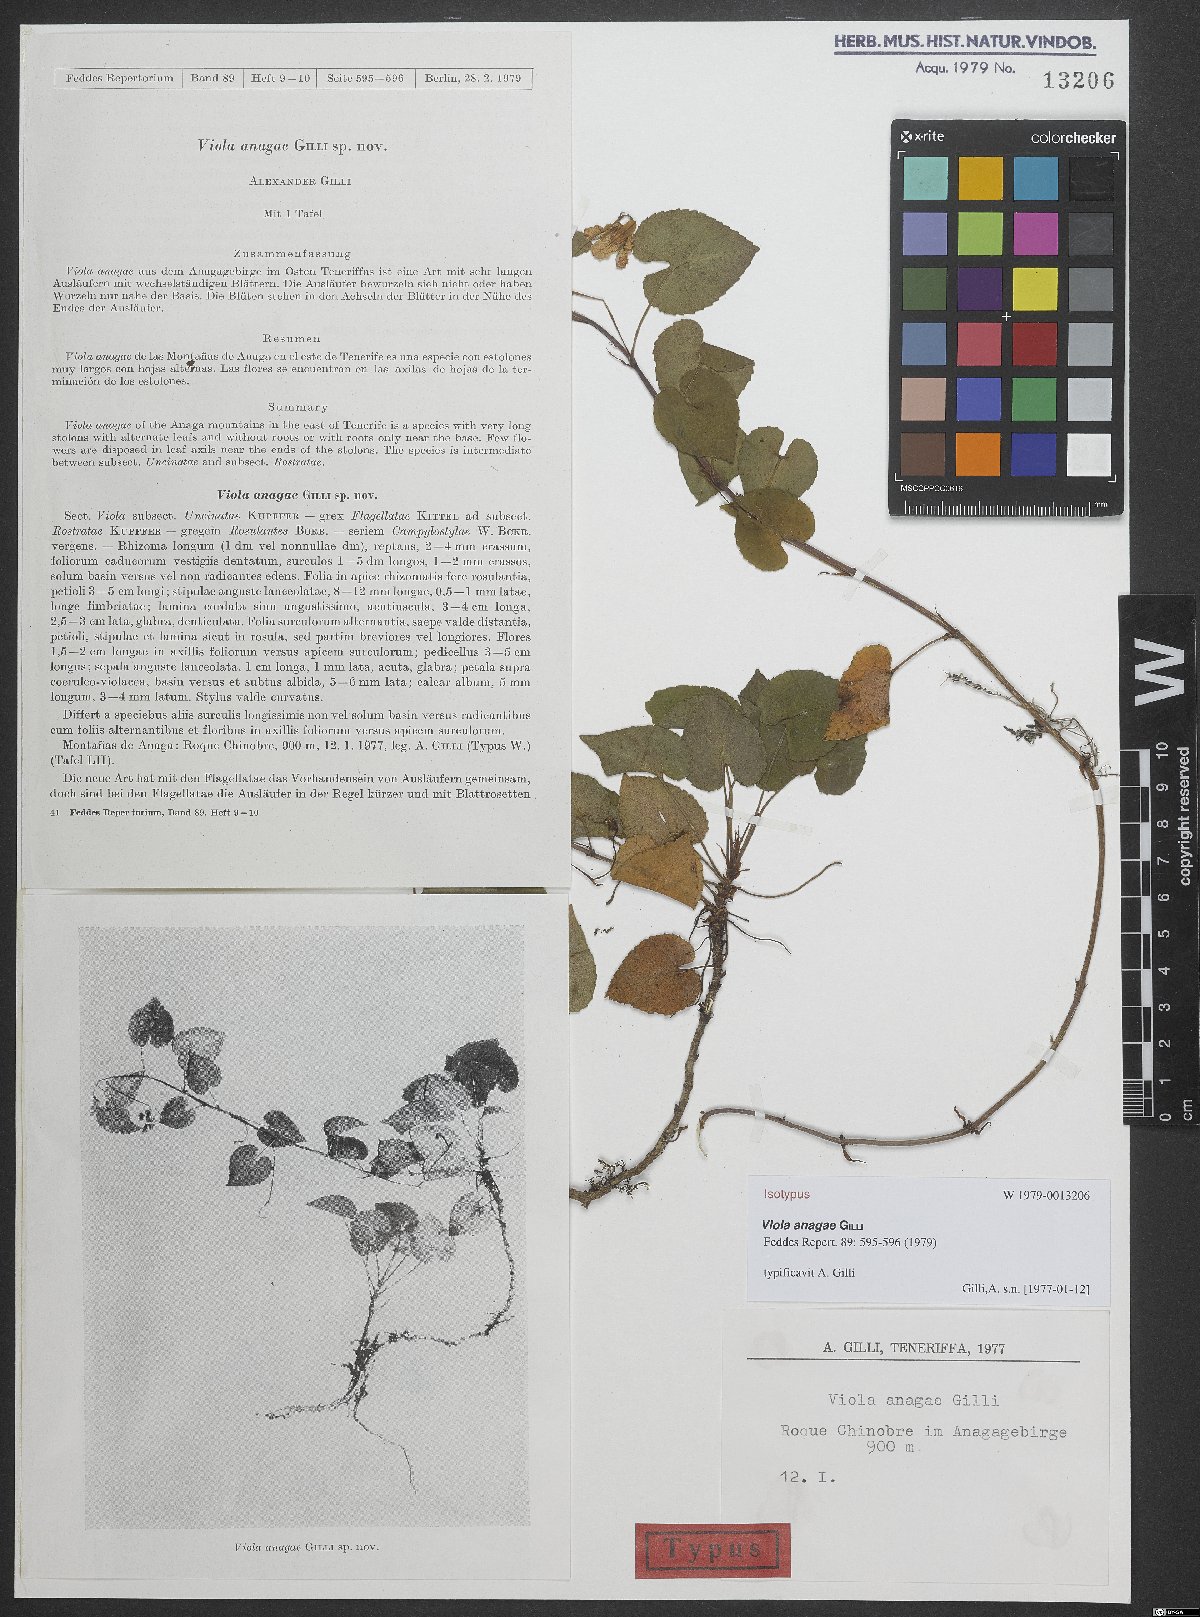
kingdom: Plantae
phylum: Tracheophyta
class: Magnoliopsida
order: Malpighiales
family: Violaceae
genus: Viola
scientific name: Viola anagae
